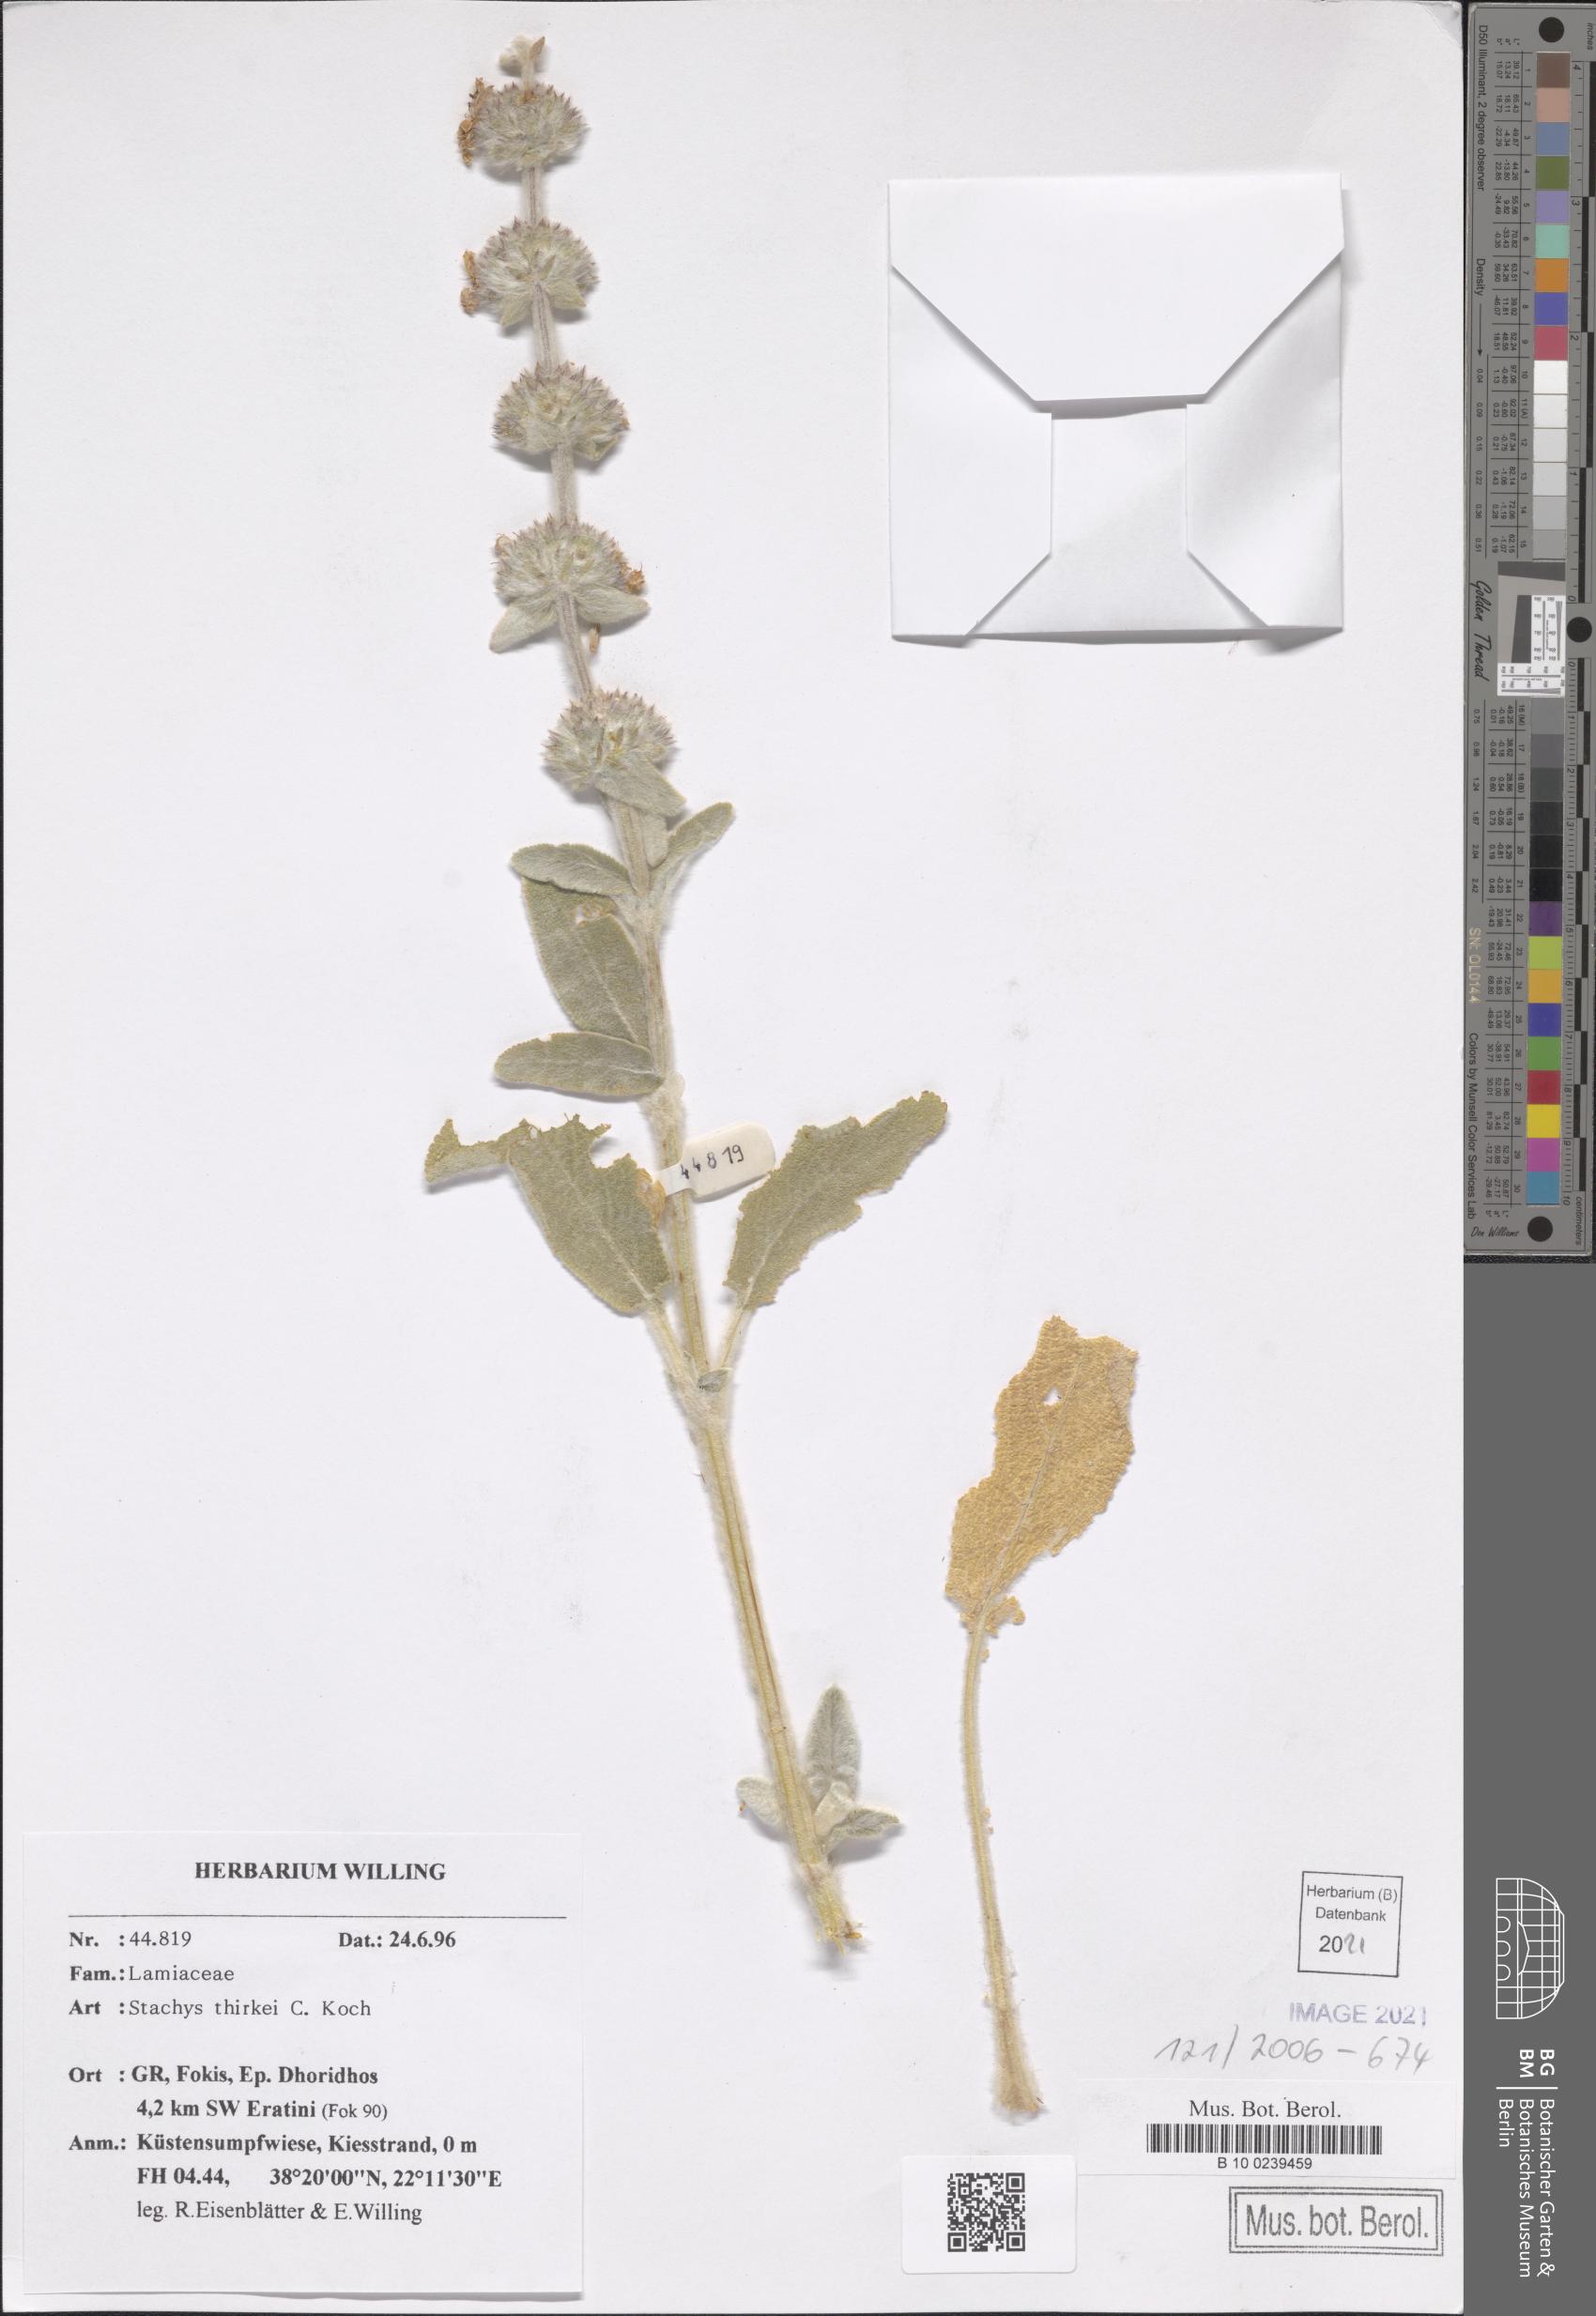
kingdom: Plantae
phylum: Tracheophyta
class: Magnoliopsida
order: Lamiales
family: Lamiaceae
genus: Stachys
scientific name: Stachys thirkei
